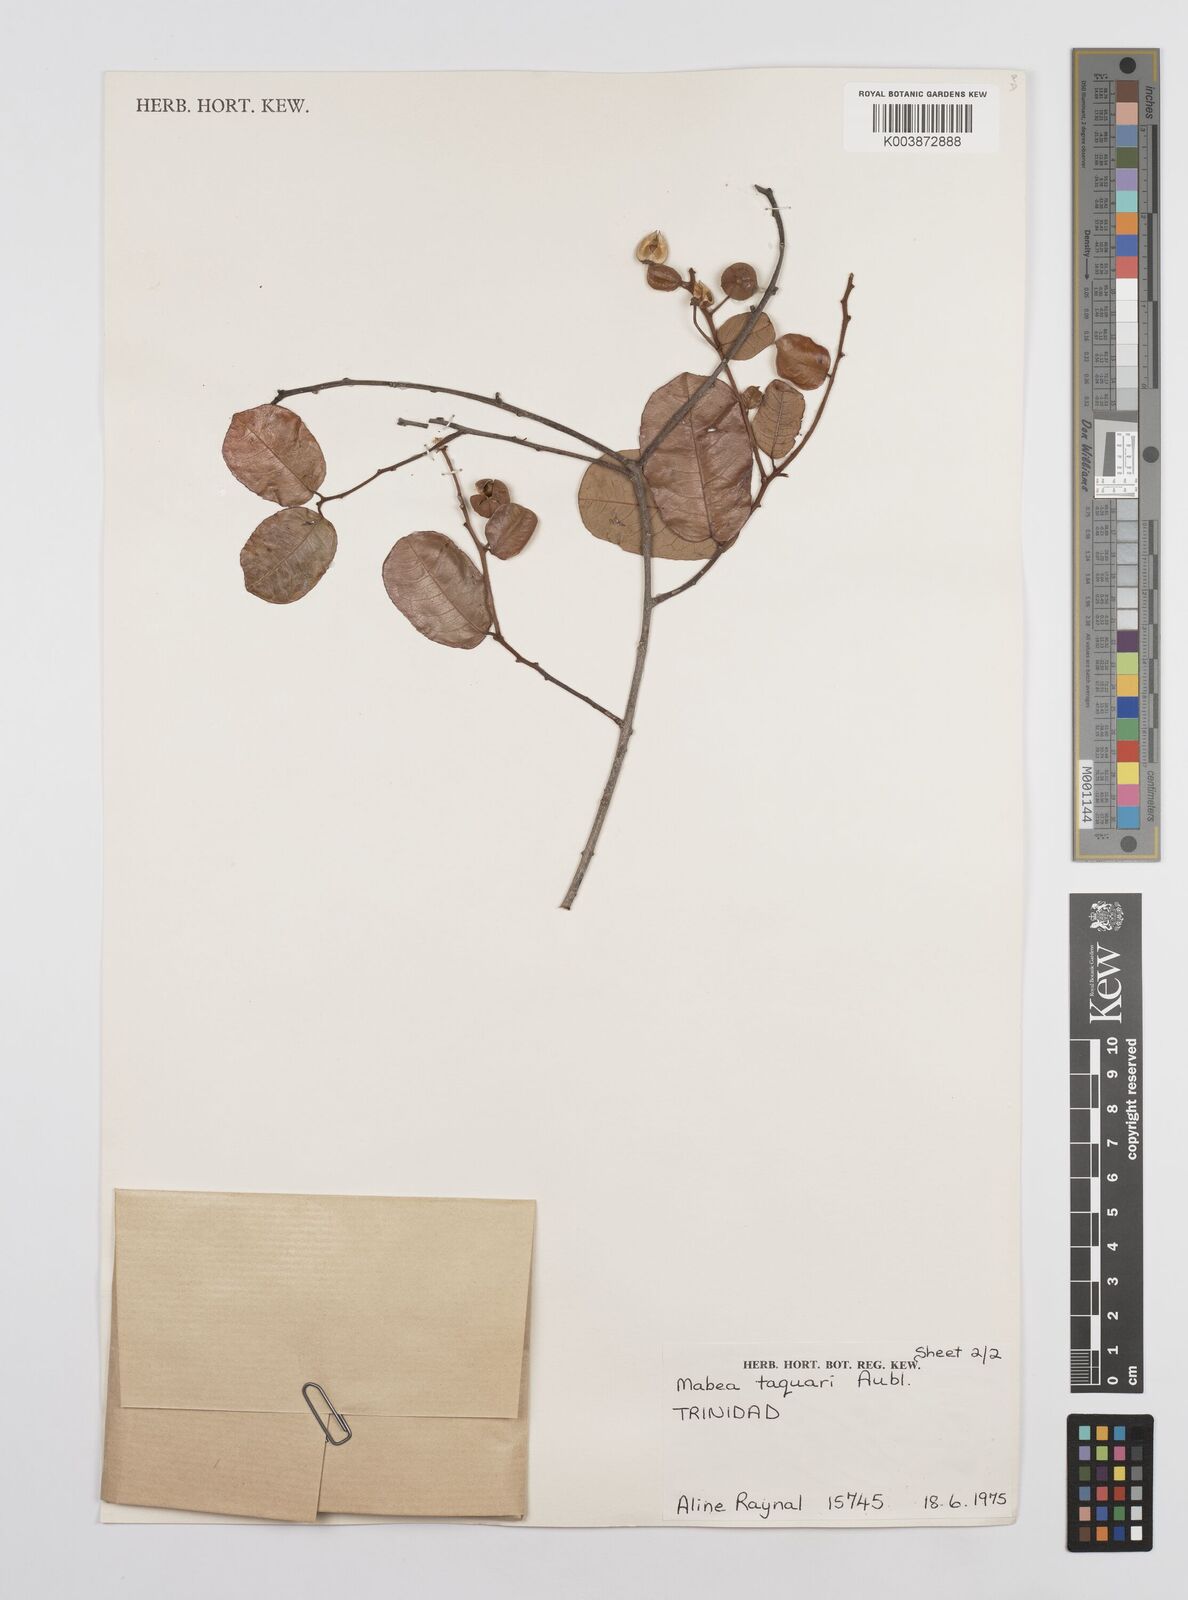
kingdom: Plantae
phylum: Tracheophyta
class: Magnoliopsida
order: Malpighiales
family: Euphorbiaceae
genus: Mabea
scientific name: Mabea taquari
